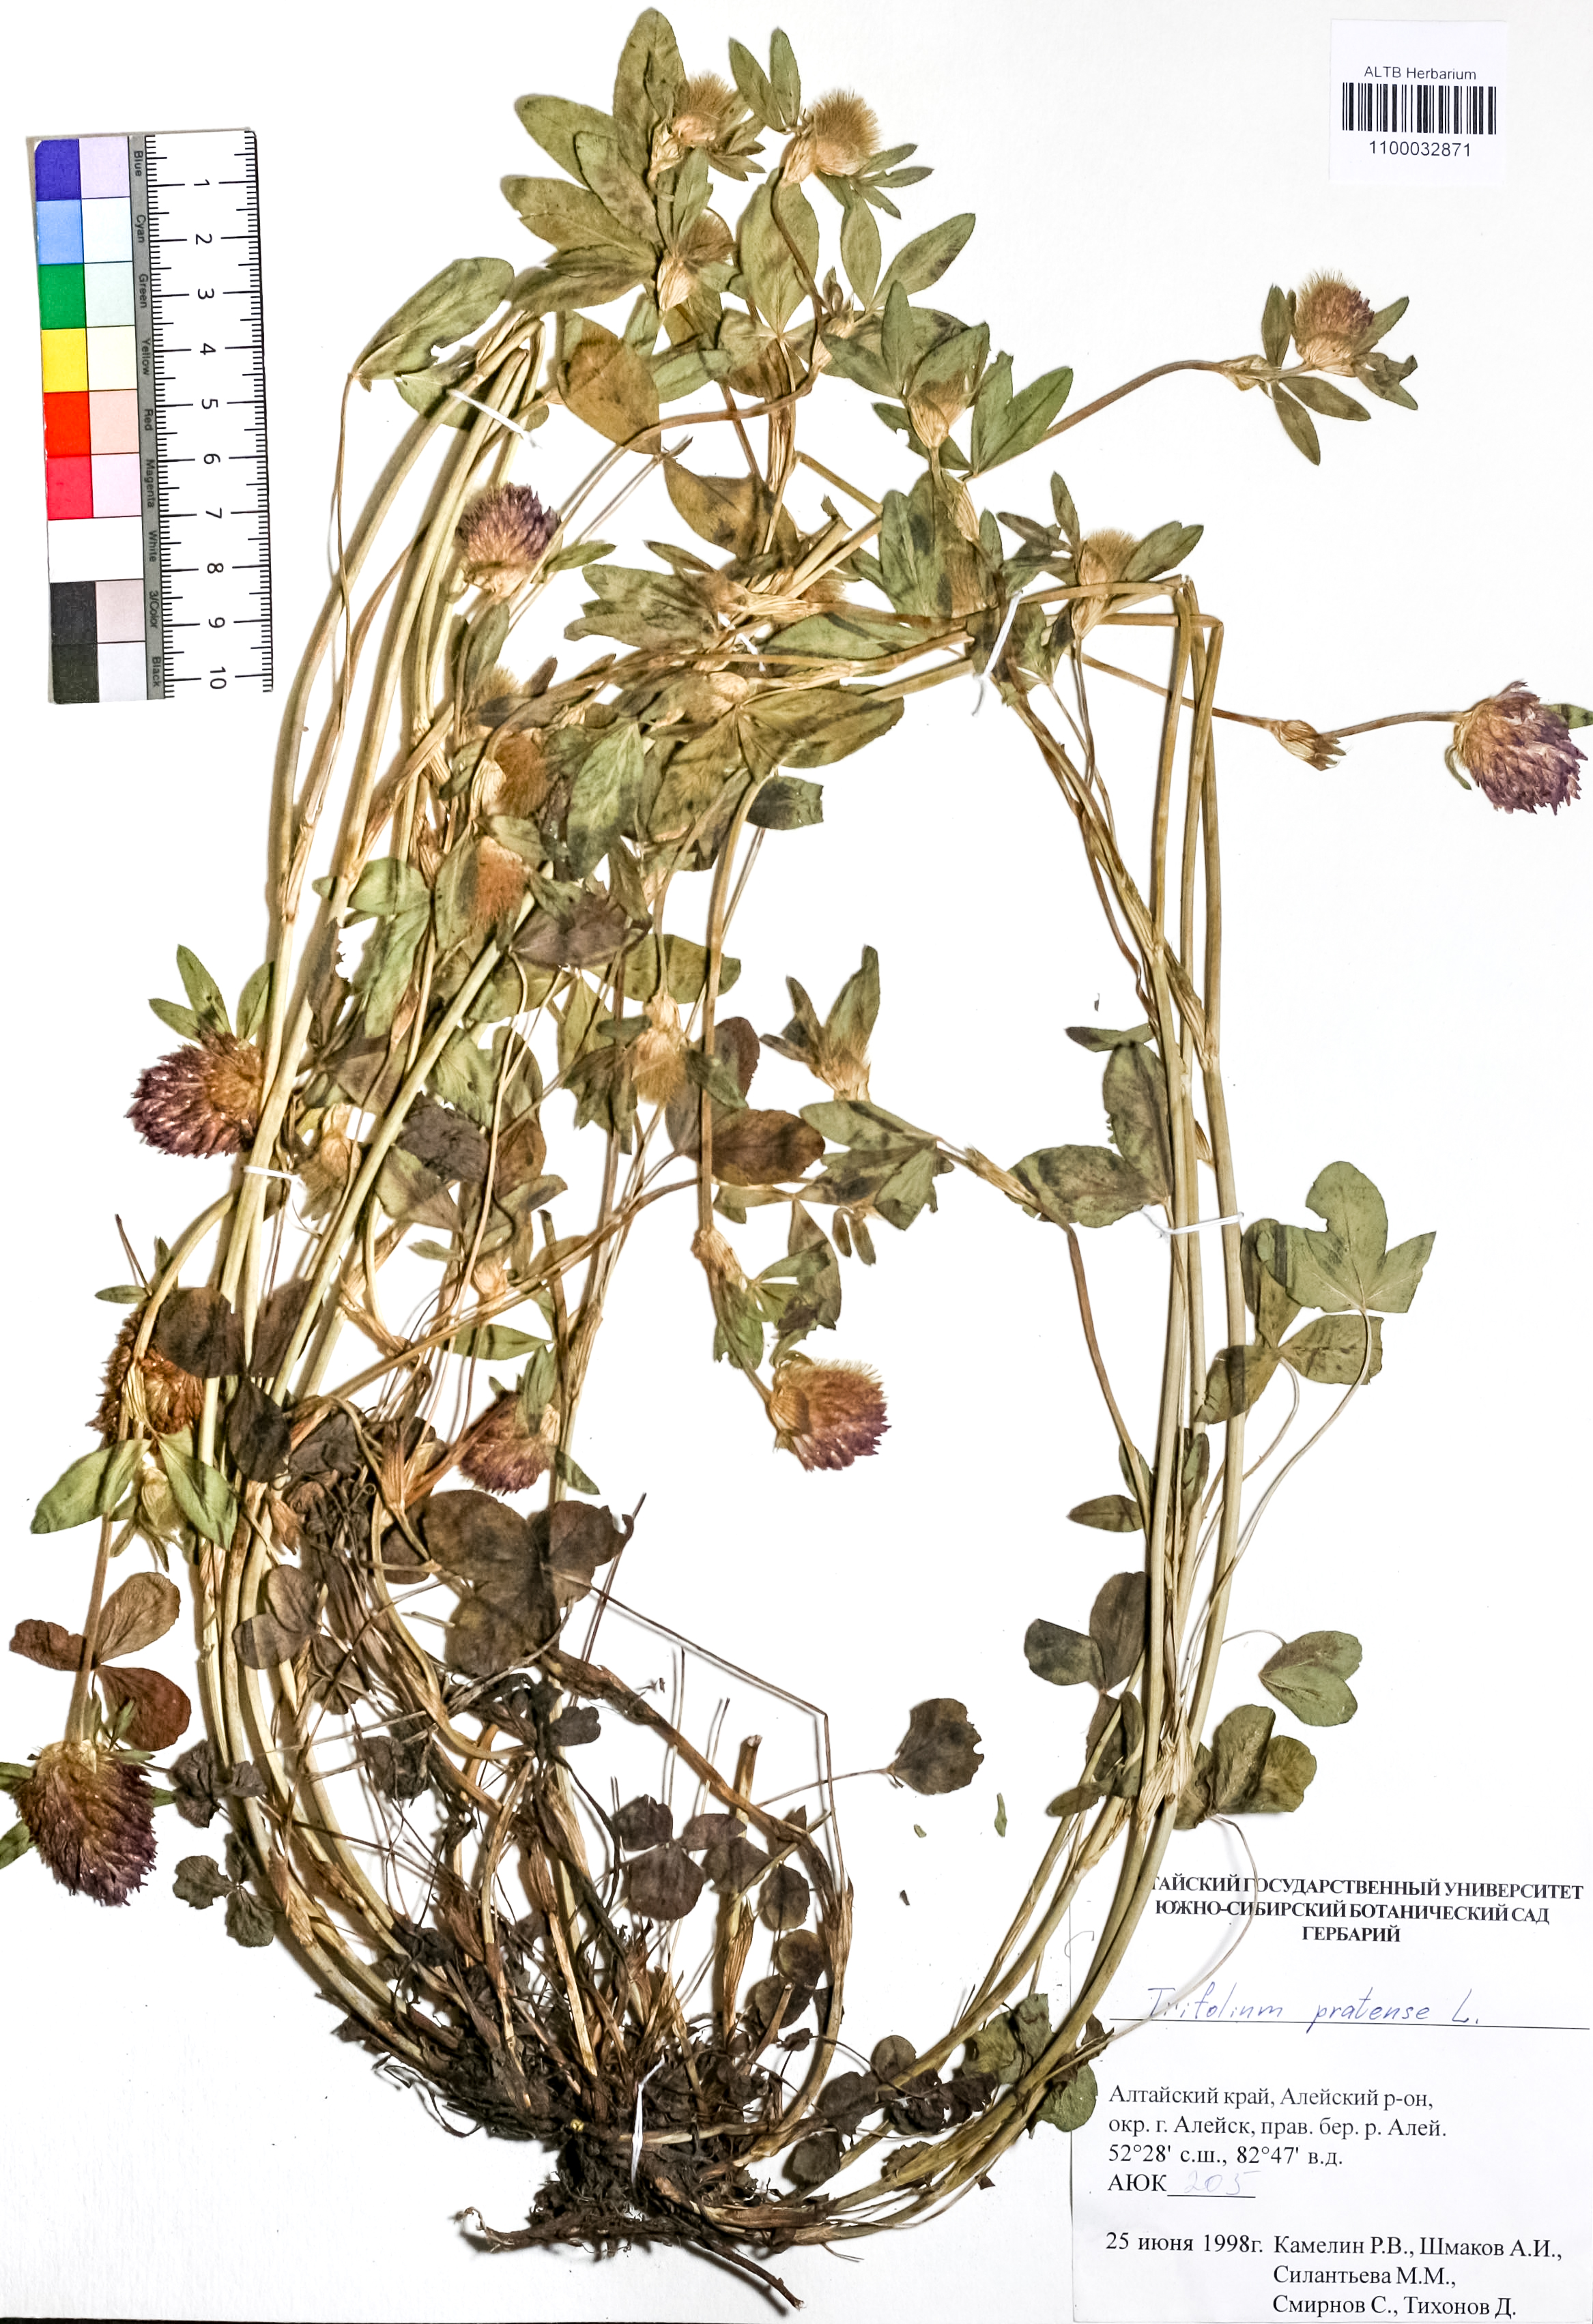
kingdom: Plantae
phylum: Tracheophyta
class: Magnoliopsida
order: Fabales
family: Fabaceae
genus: Trifolium
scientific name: Trifolium pratense
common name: Red clover
